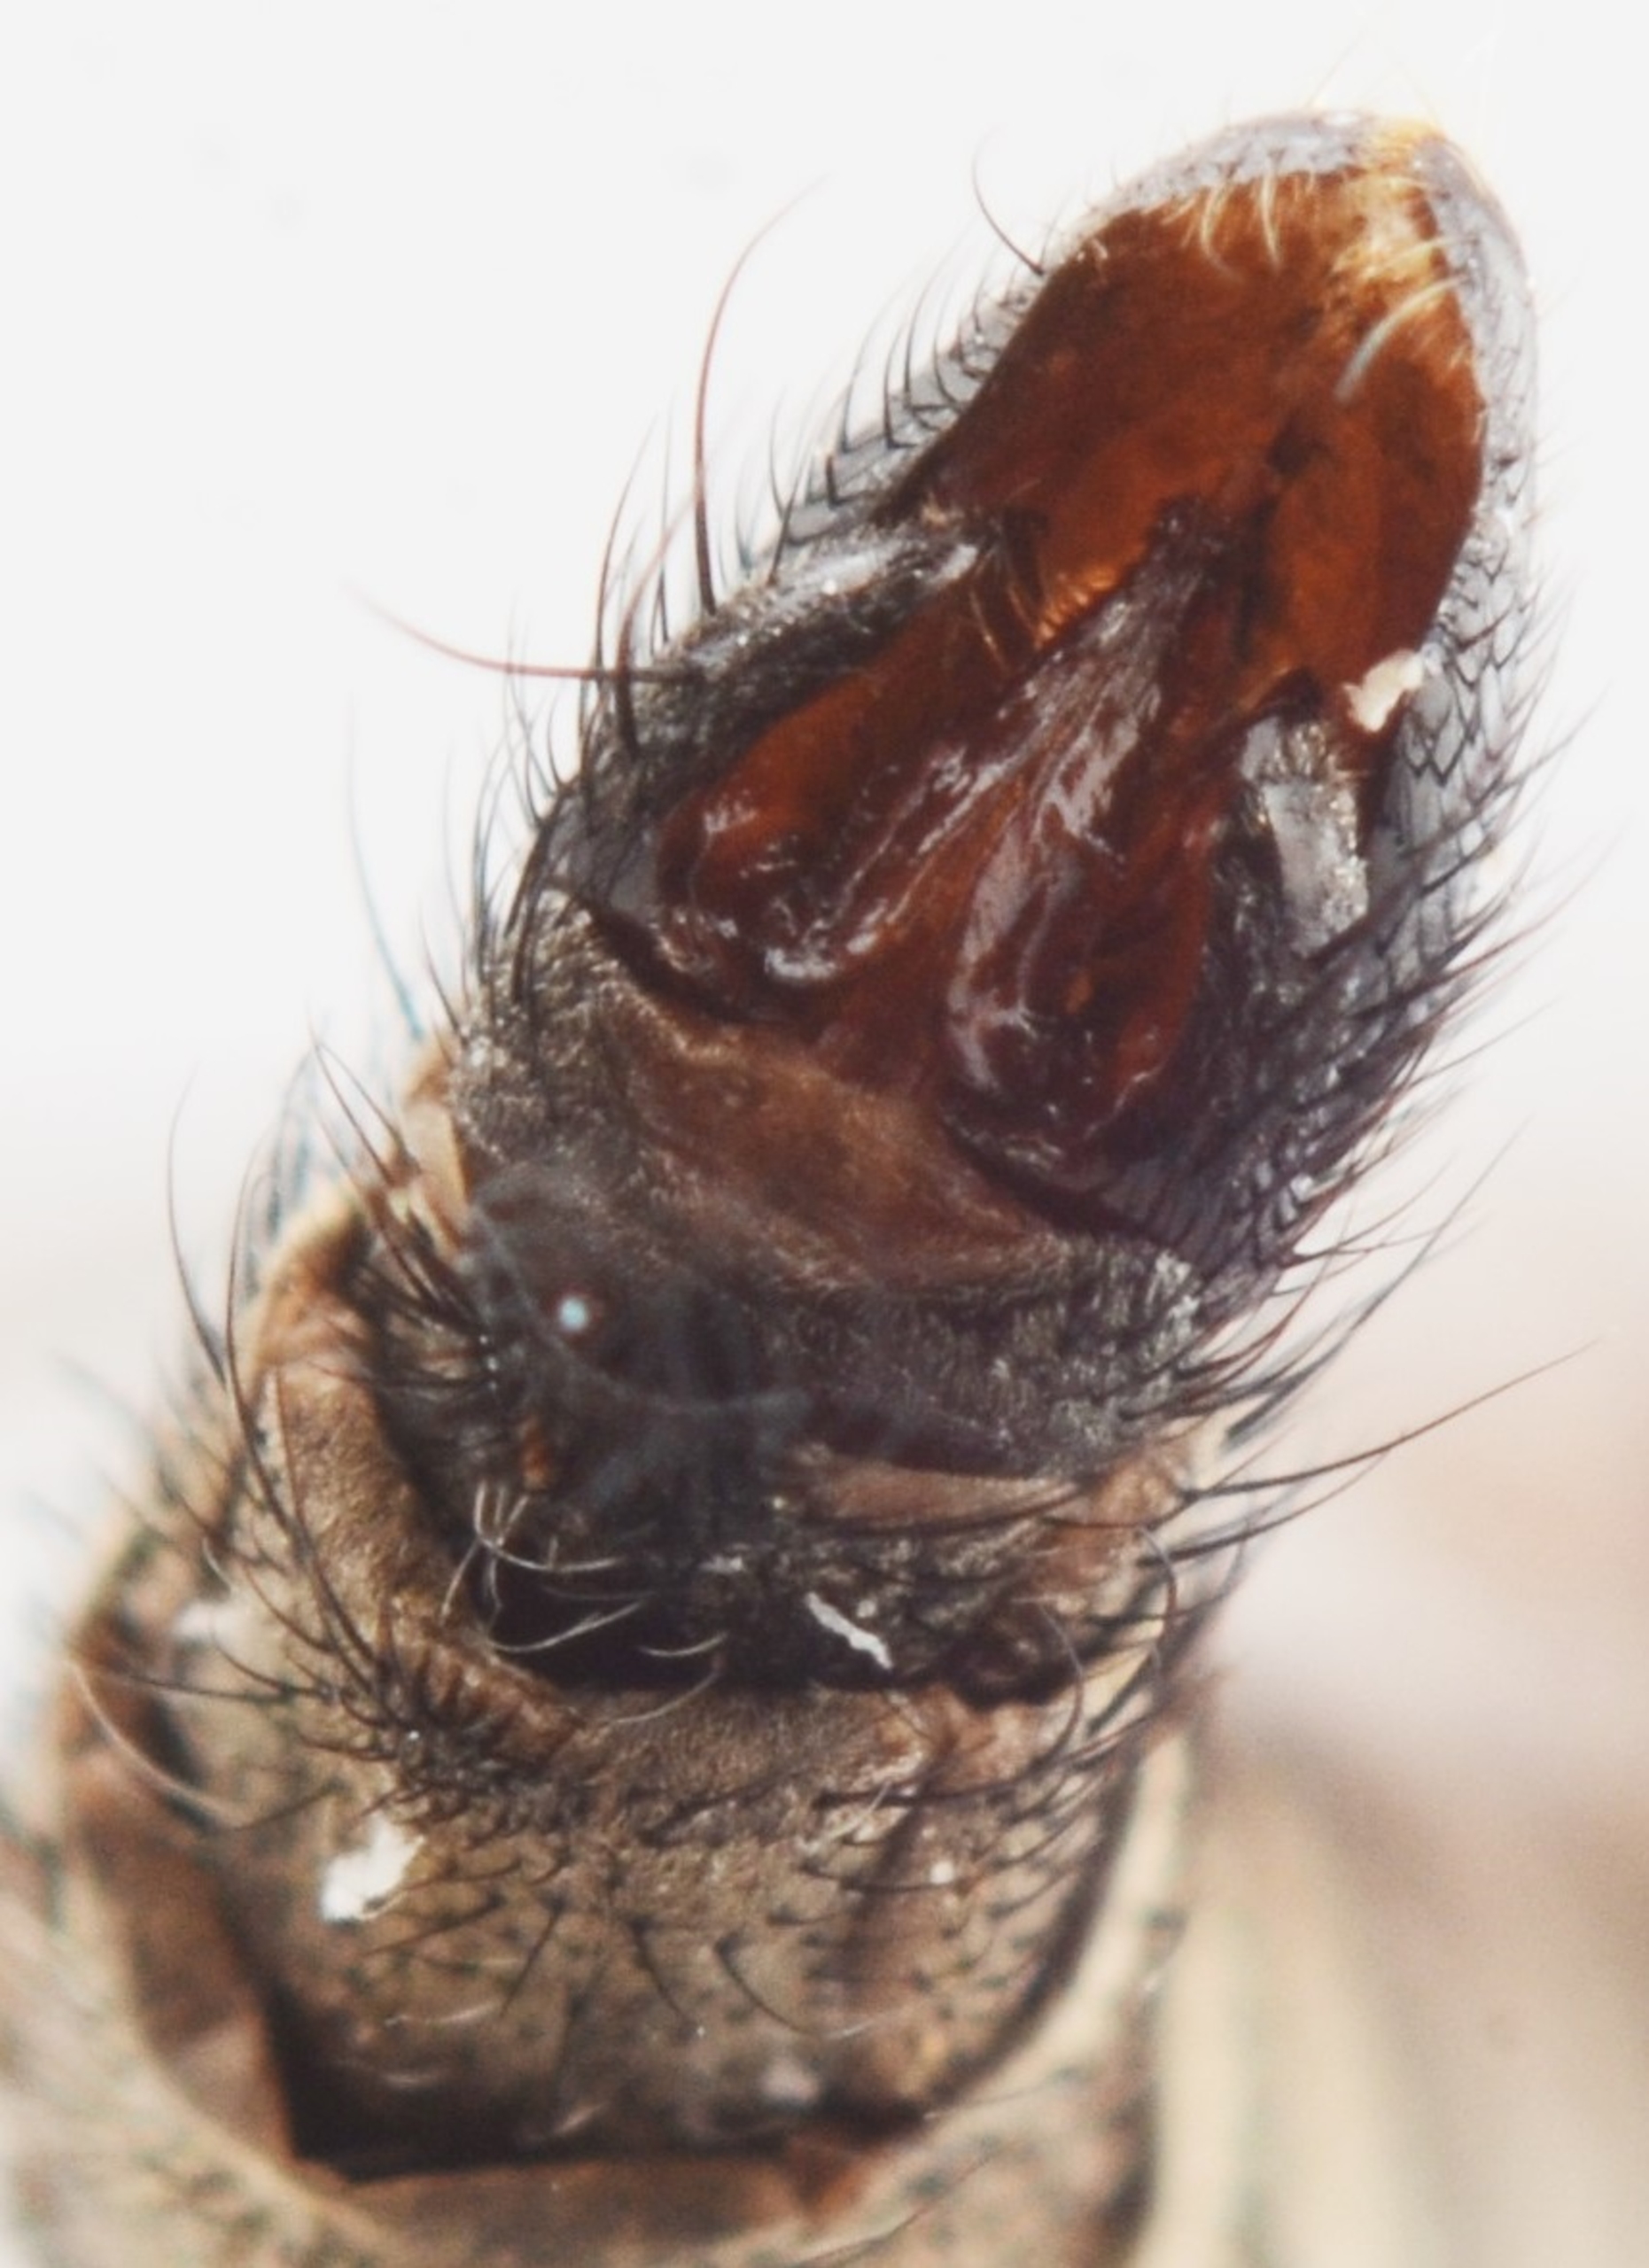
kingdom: Animalia
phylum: Arthropoda
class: Insecta
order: Diptera
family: Asilidae
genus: Machimus
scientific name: Machimus atricapillus
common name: Sort hårrovflue
